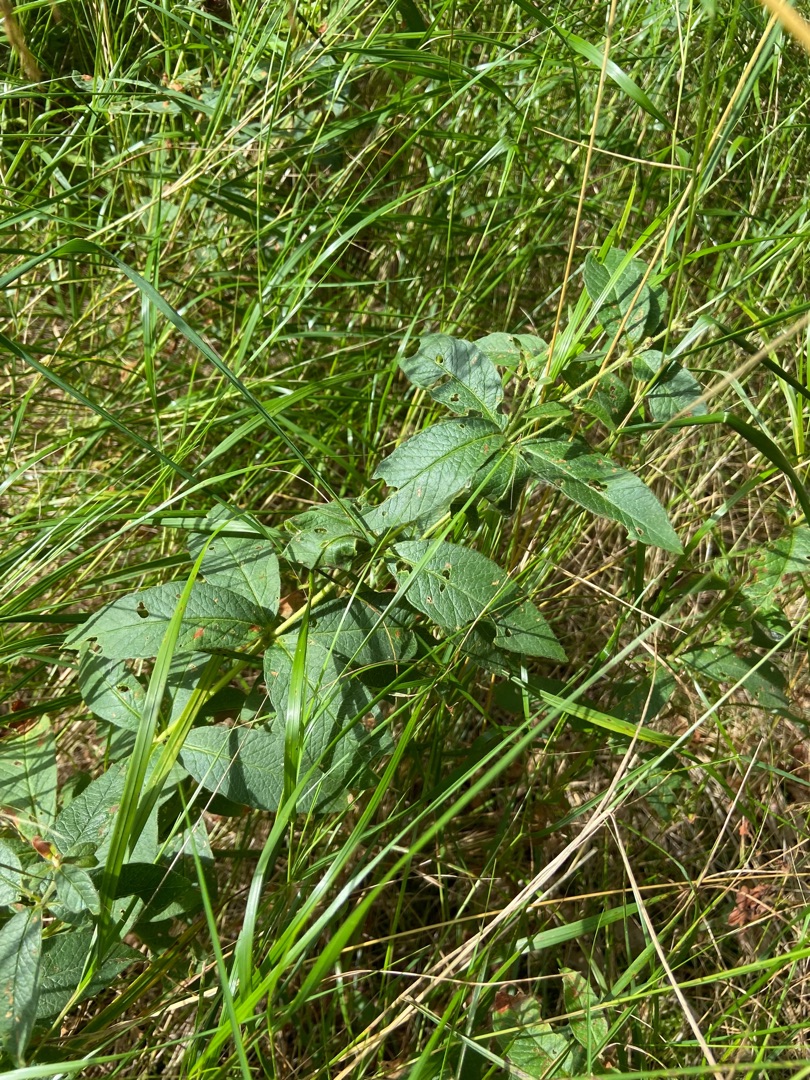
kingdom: Plantae
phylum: Tracheophyta
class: Magnoliopsida
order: Ericales
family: Primulaceae
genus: Lysimachia
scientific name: Lysimachia vulgaris
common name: Almindelig fredløs
